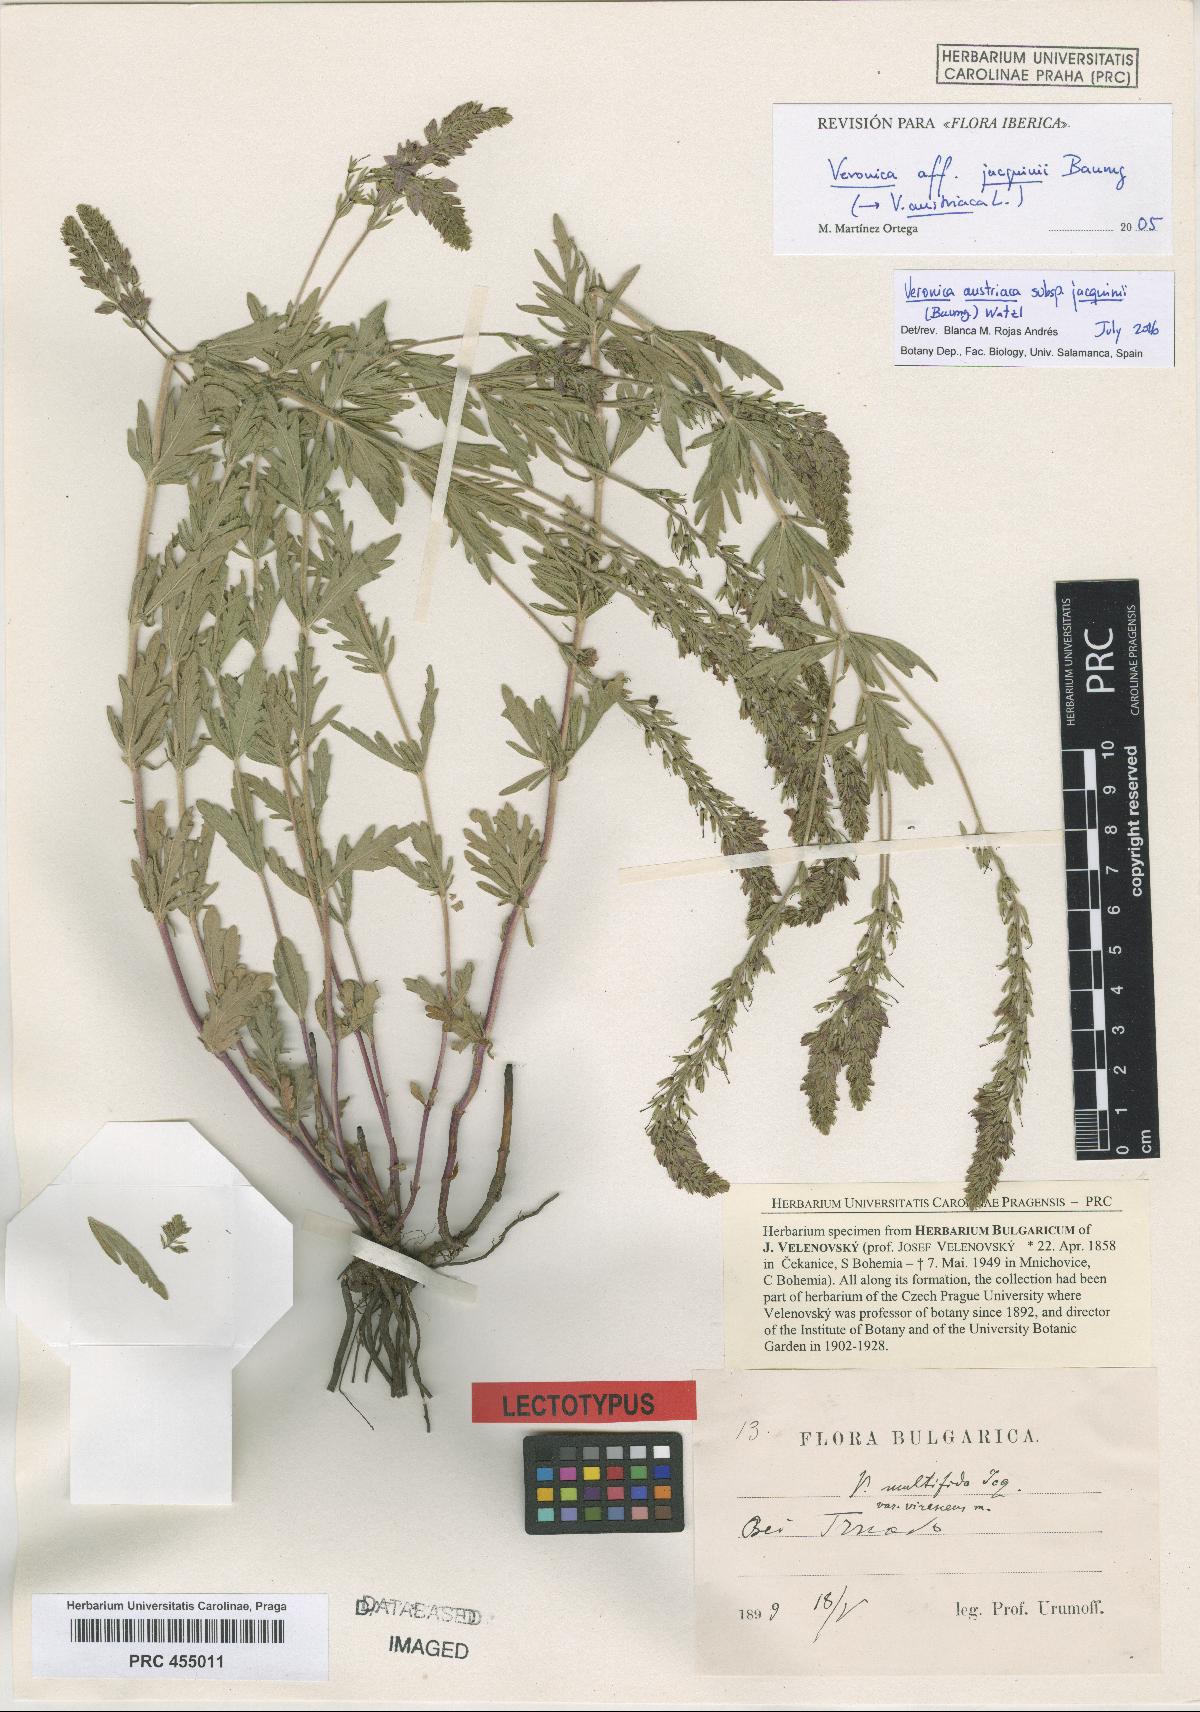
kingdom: Plantae
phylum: Tracheophyta
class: Magnoliopsida
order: Lamiales
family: Plantaginaceae
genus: Veronica
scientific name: Veronica multifida
